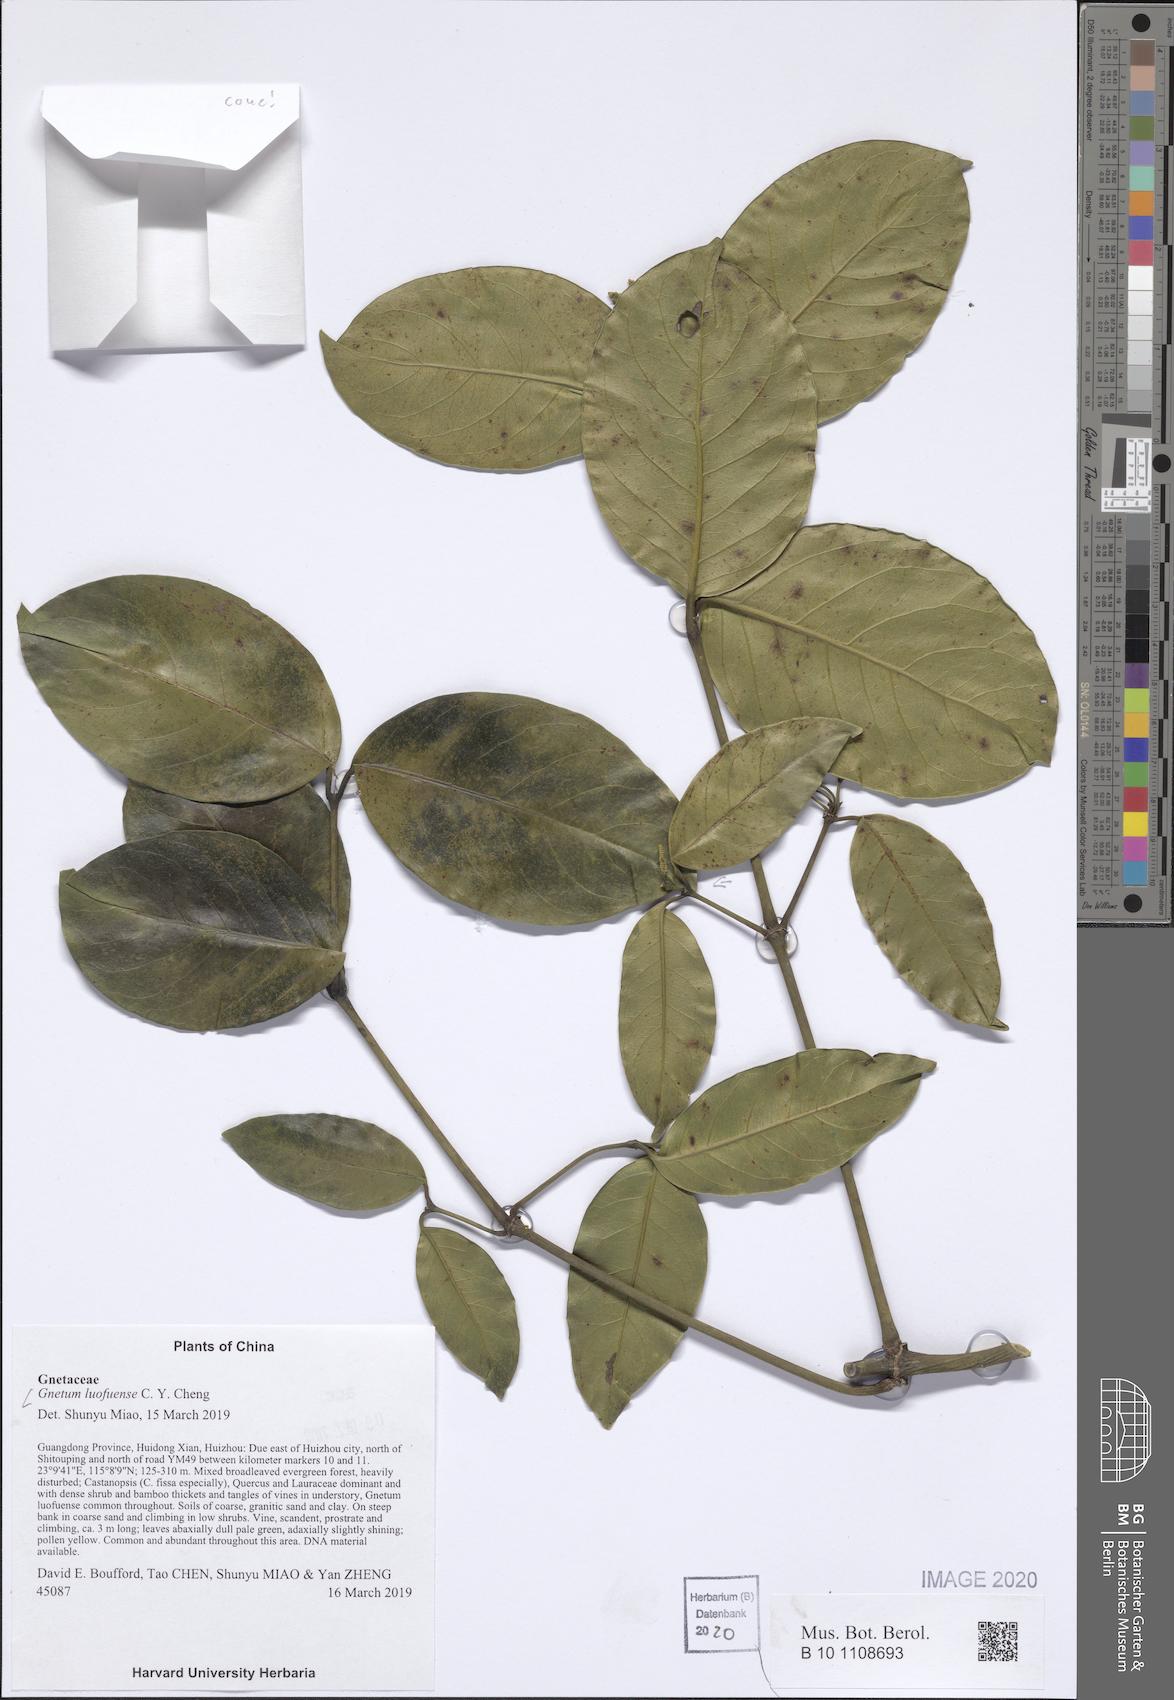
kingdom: Plantae
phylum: Tracheophyta
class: Gnetopsida
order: Gnetales
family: Gnetaceae
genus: Gnetum
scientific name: Gnetum luofuense
